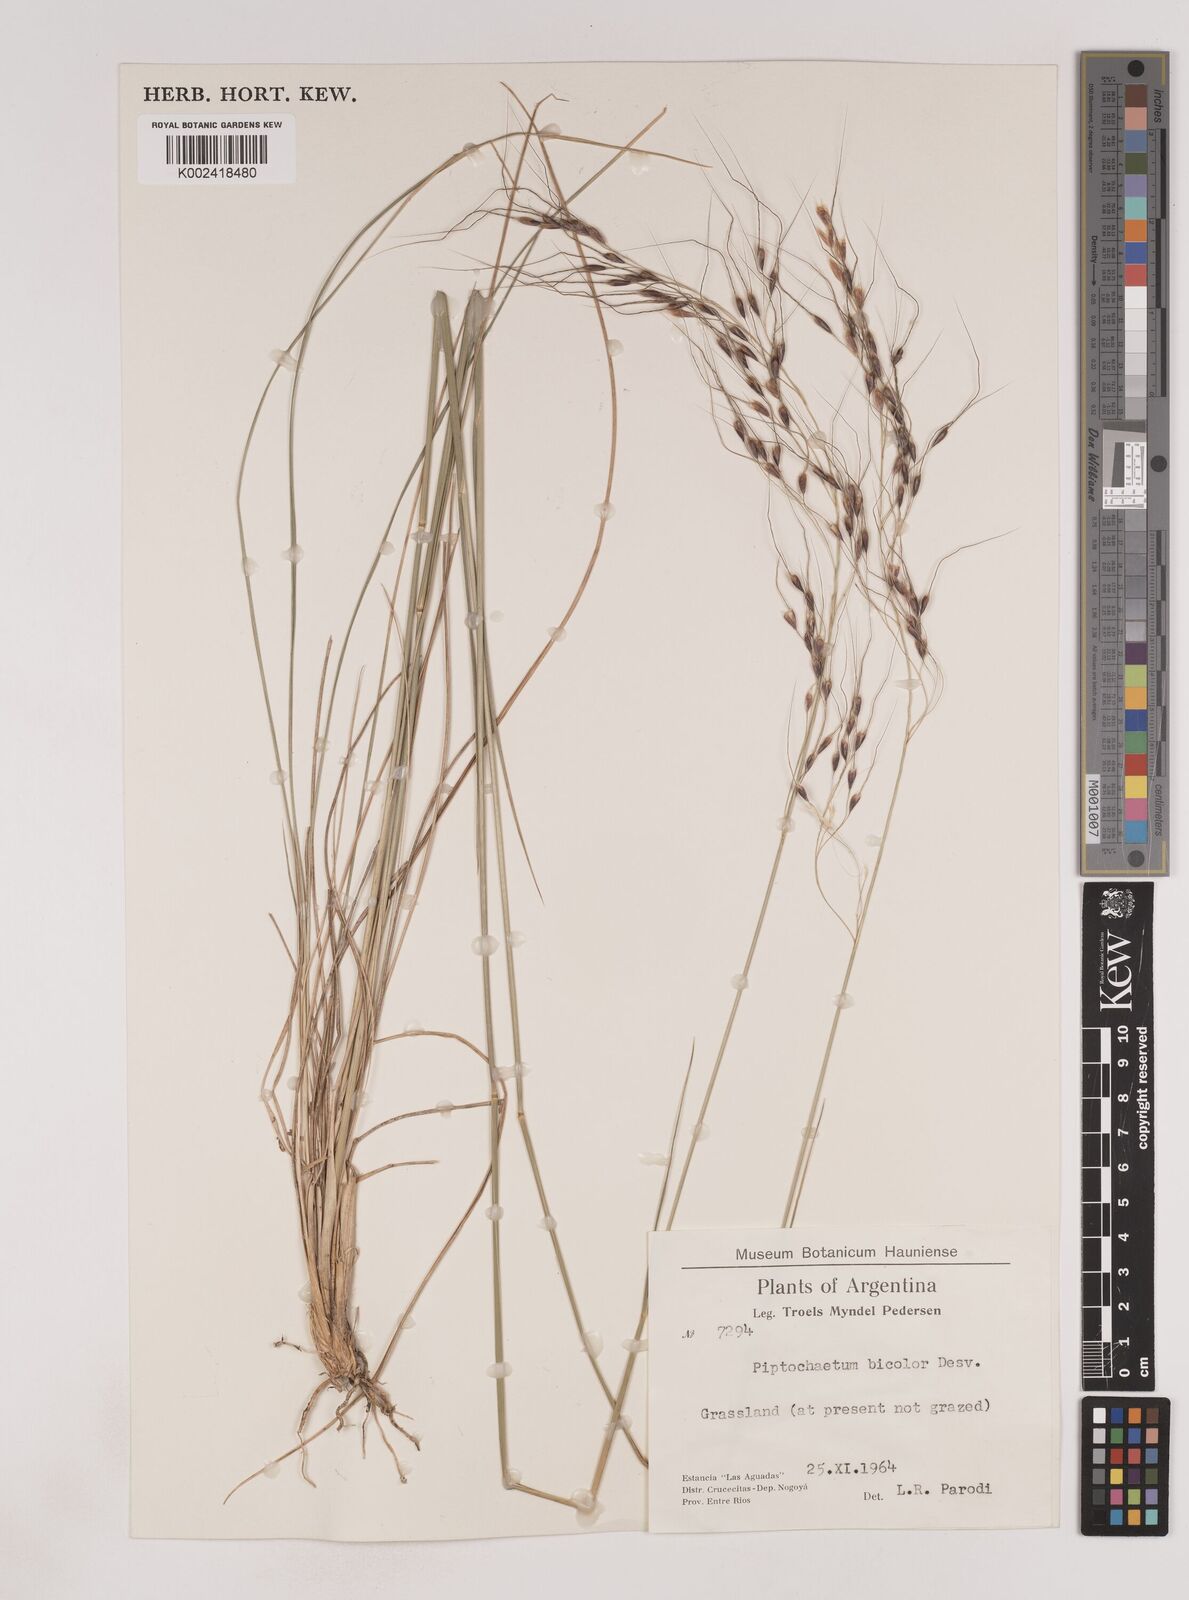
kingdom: Plantae
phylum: Tracheophyta
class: Liliopsida
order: Poales
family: Poaceae
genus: Piptochaetium
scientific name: Piptochaetium bicolor
